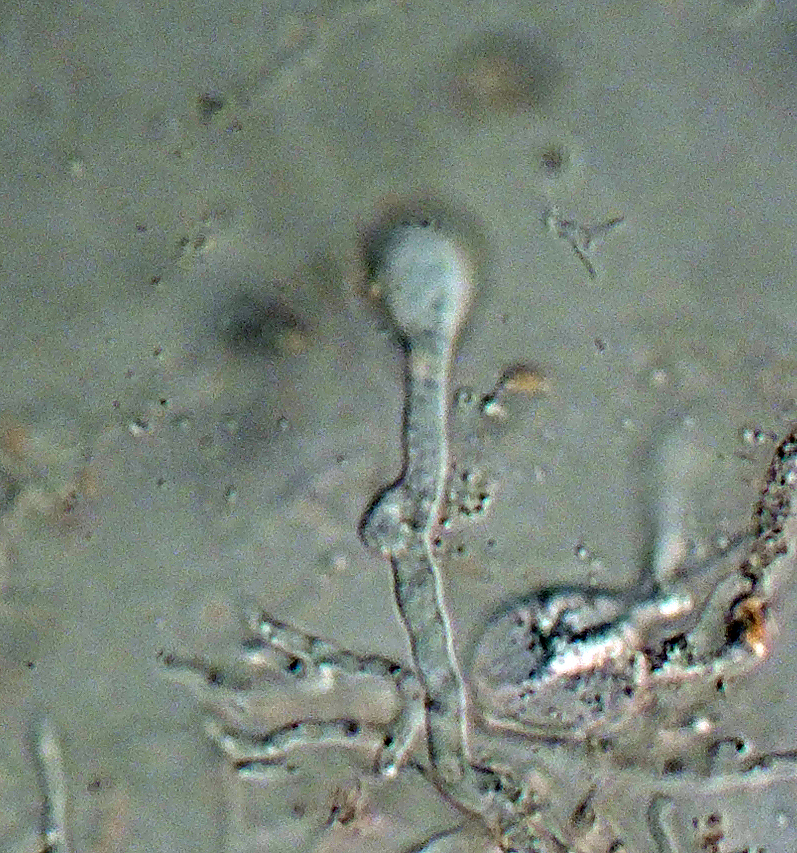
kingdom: Fungi
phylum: Basidiomycota
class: Agaricomycetes
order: Auriculariales
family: Hyaloriaceae
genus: Myxarium
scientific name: Myxarium
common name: bævretop
